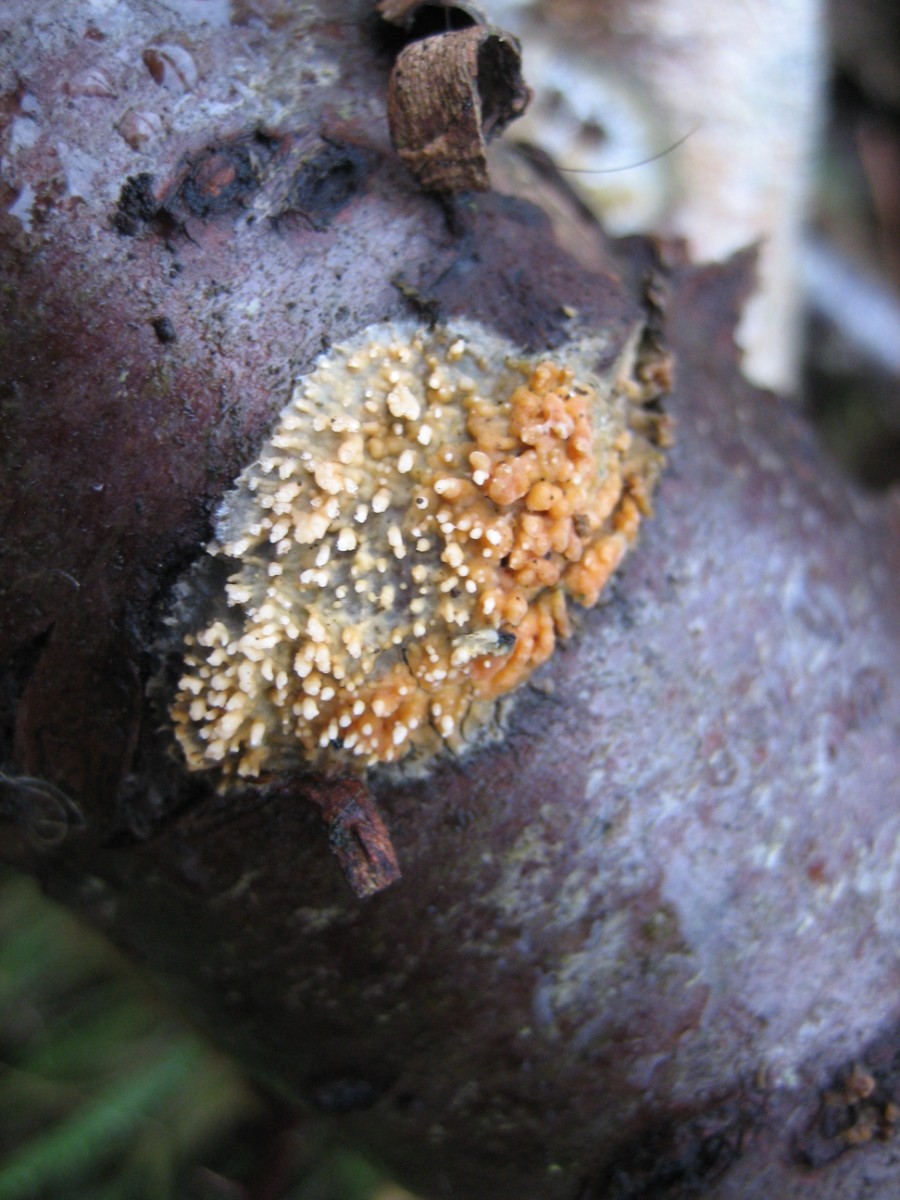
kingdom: Fungi
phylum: Basidiomycota
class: Agaricomycetes
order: Hymenochaetales
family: Schizoporaceae
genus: Xylodon
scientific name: Xylodon radula
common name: grovtandet kalkskind
